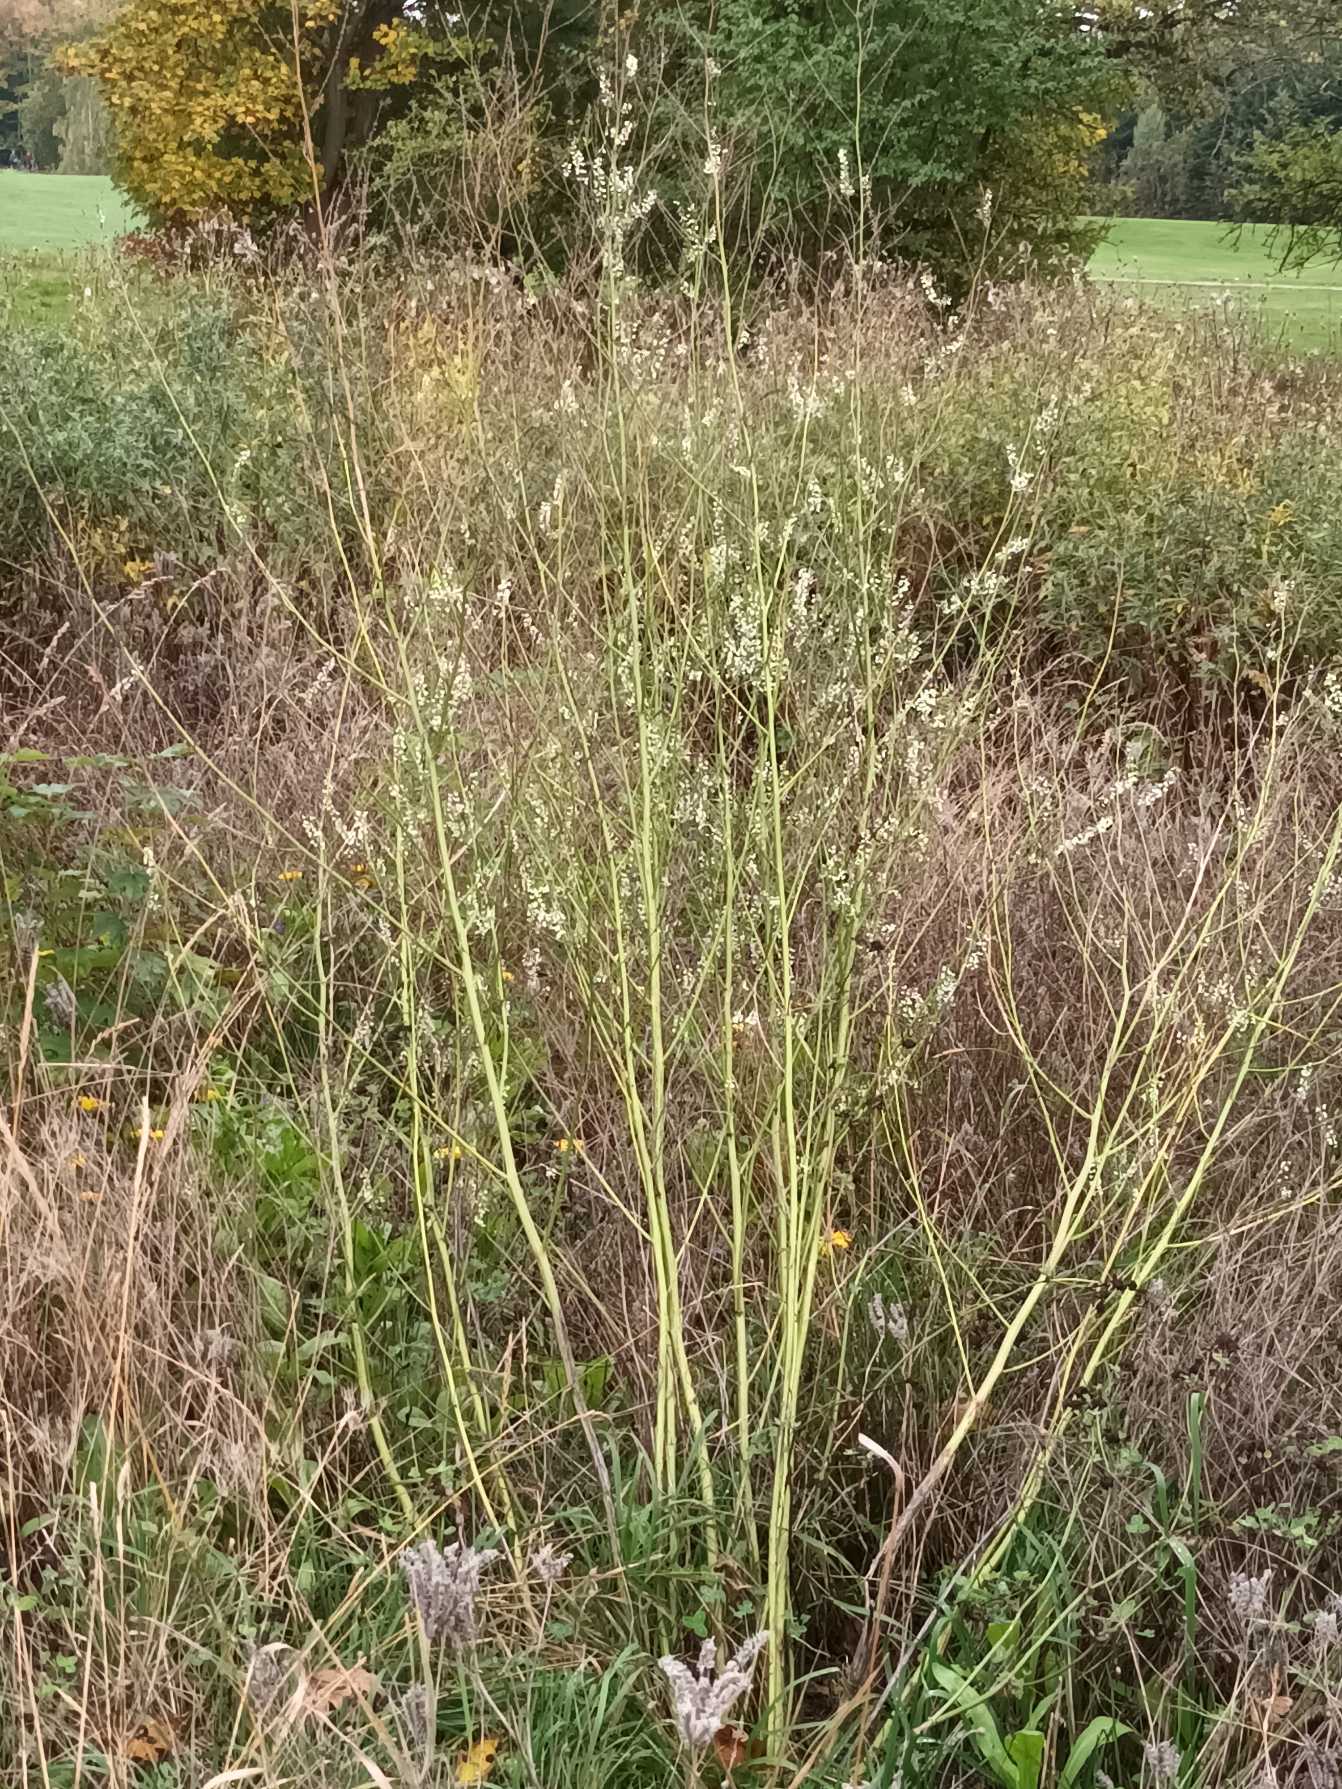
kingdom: Plantae
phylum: Tracheophyta
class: Magnoliopsida
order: Fabales
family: Fabaceae
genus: Melilotus
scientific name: Melilotus albus
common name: Hvid stenkløver
